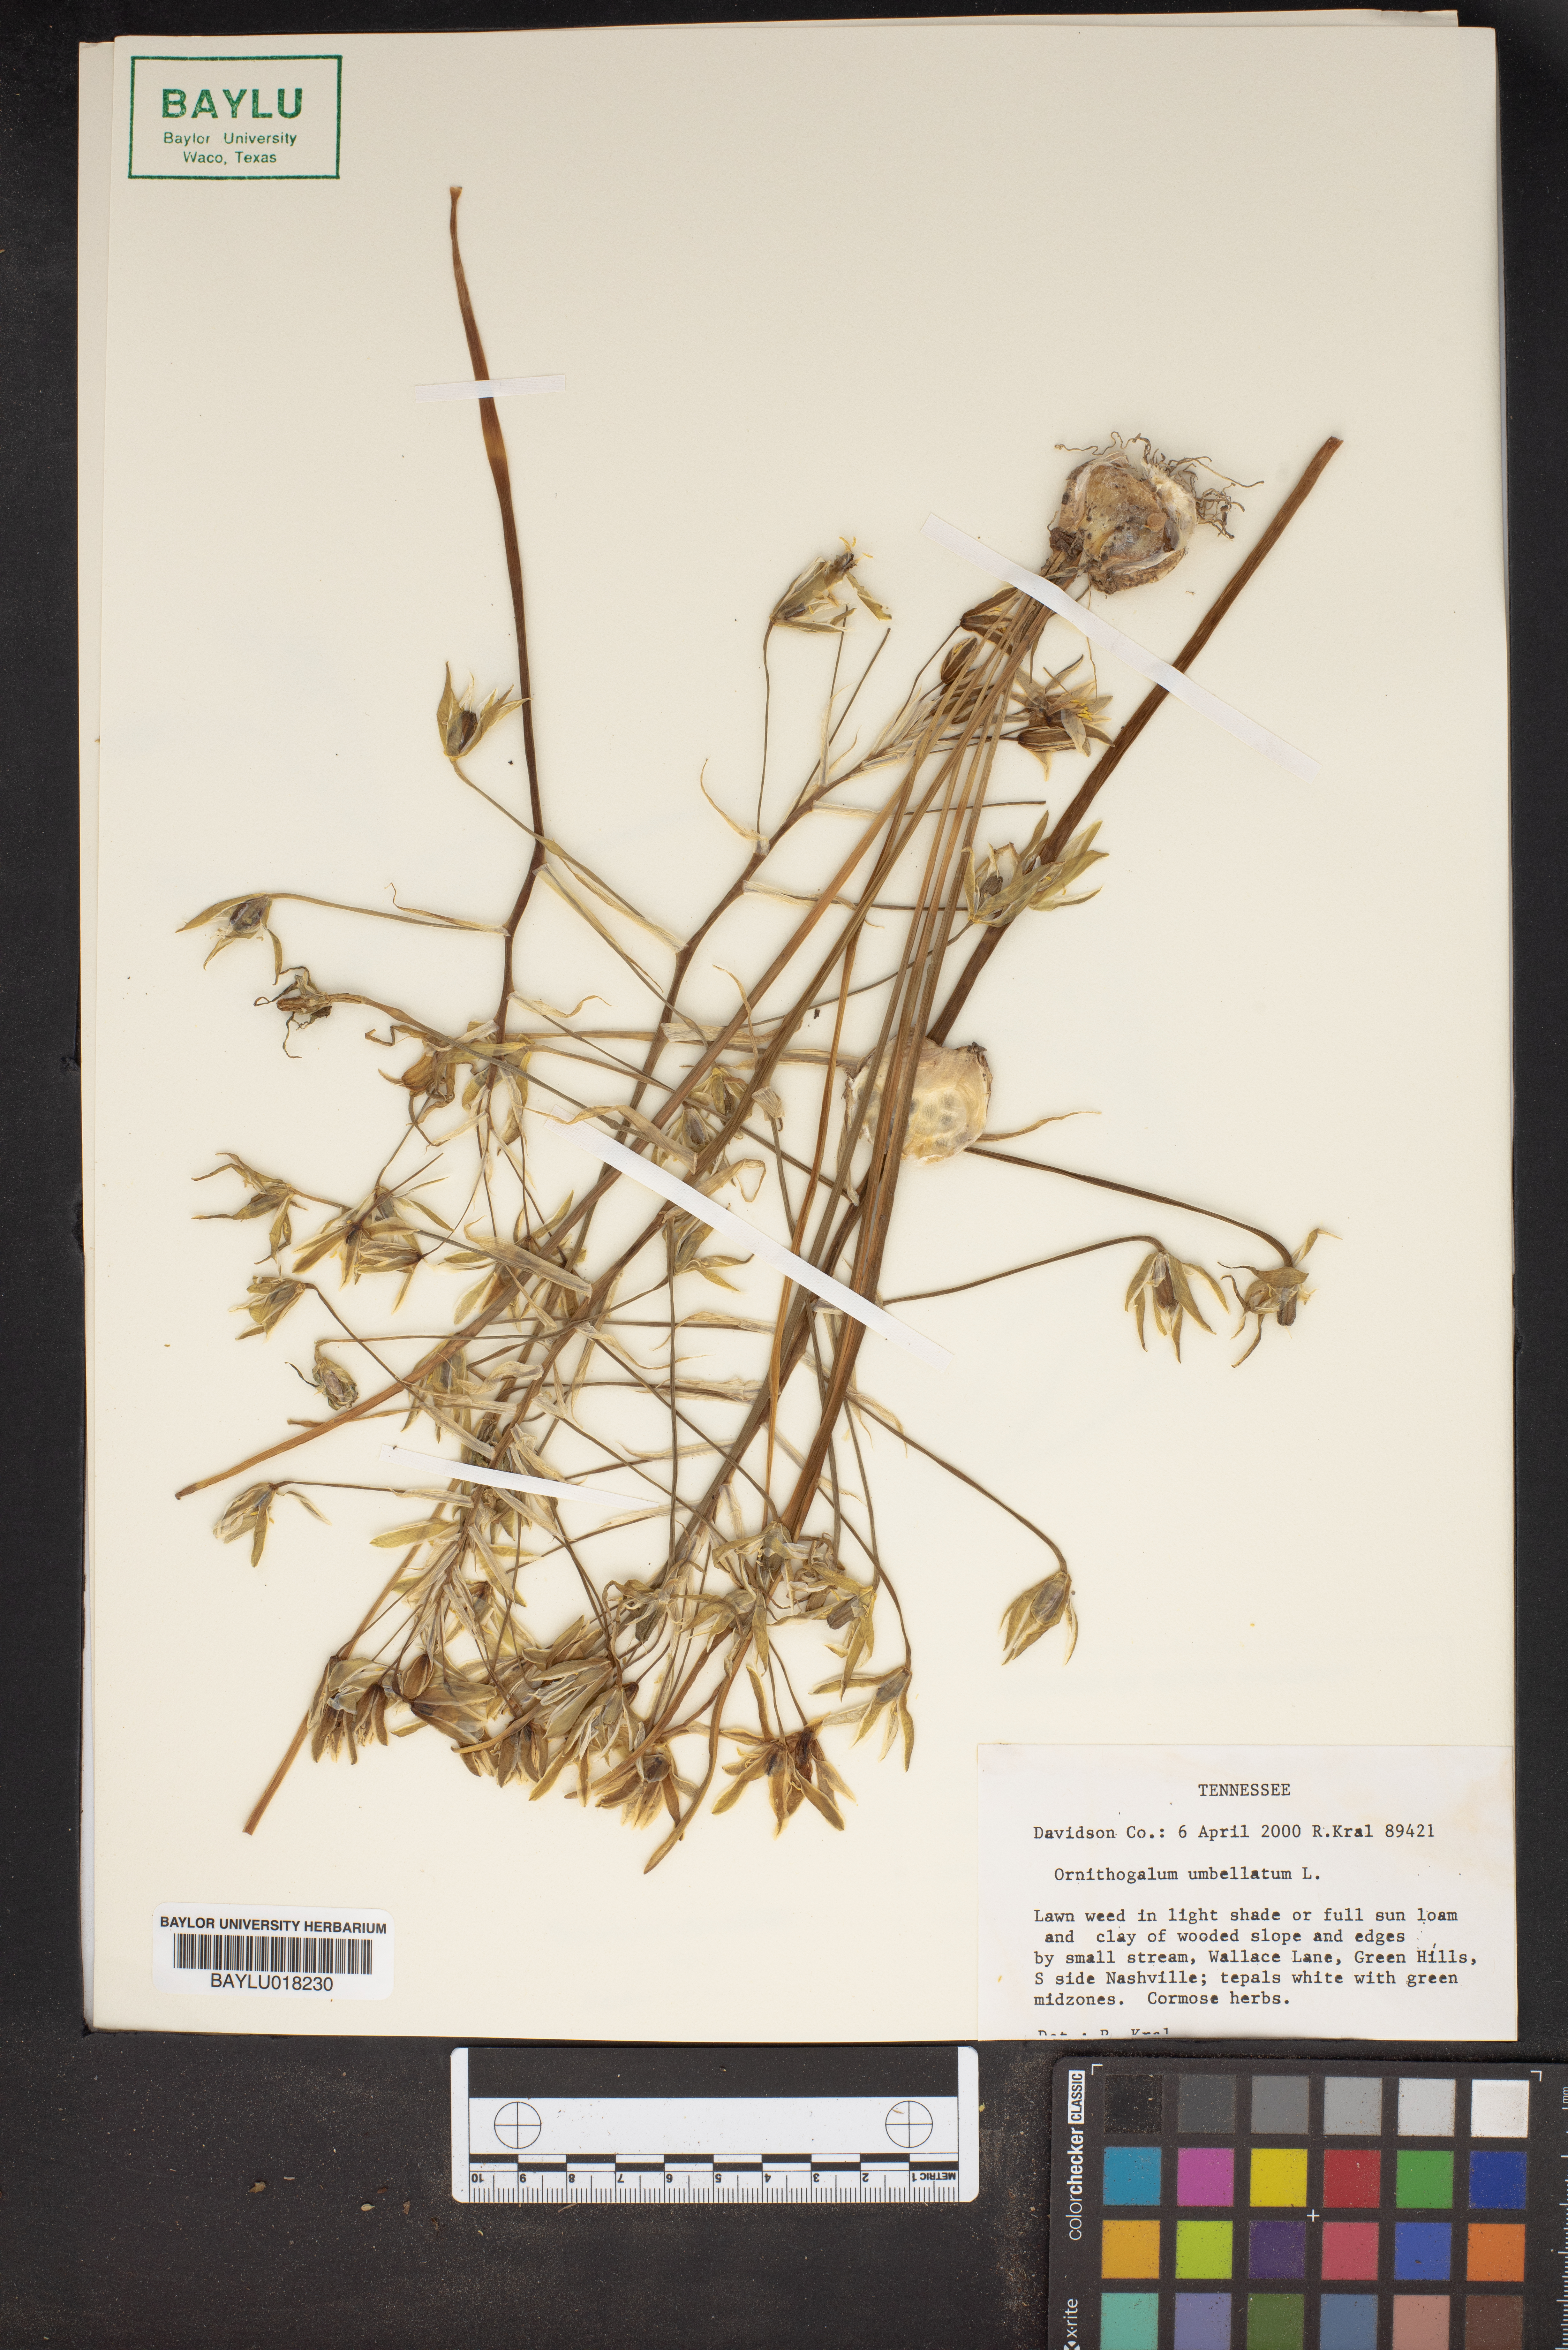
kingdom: Plantae
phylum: Tracheophyta
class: Liliopsida
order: Asparagales
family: Asparagaceae
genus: Ornithogalum
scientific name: Ornithogalum umbellatum
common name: Garden star-of-bethlehem
